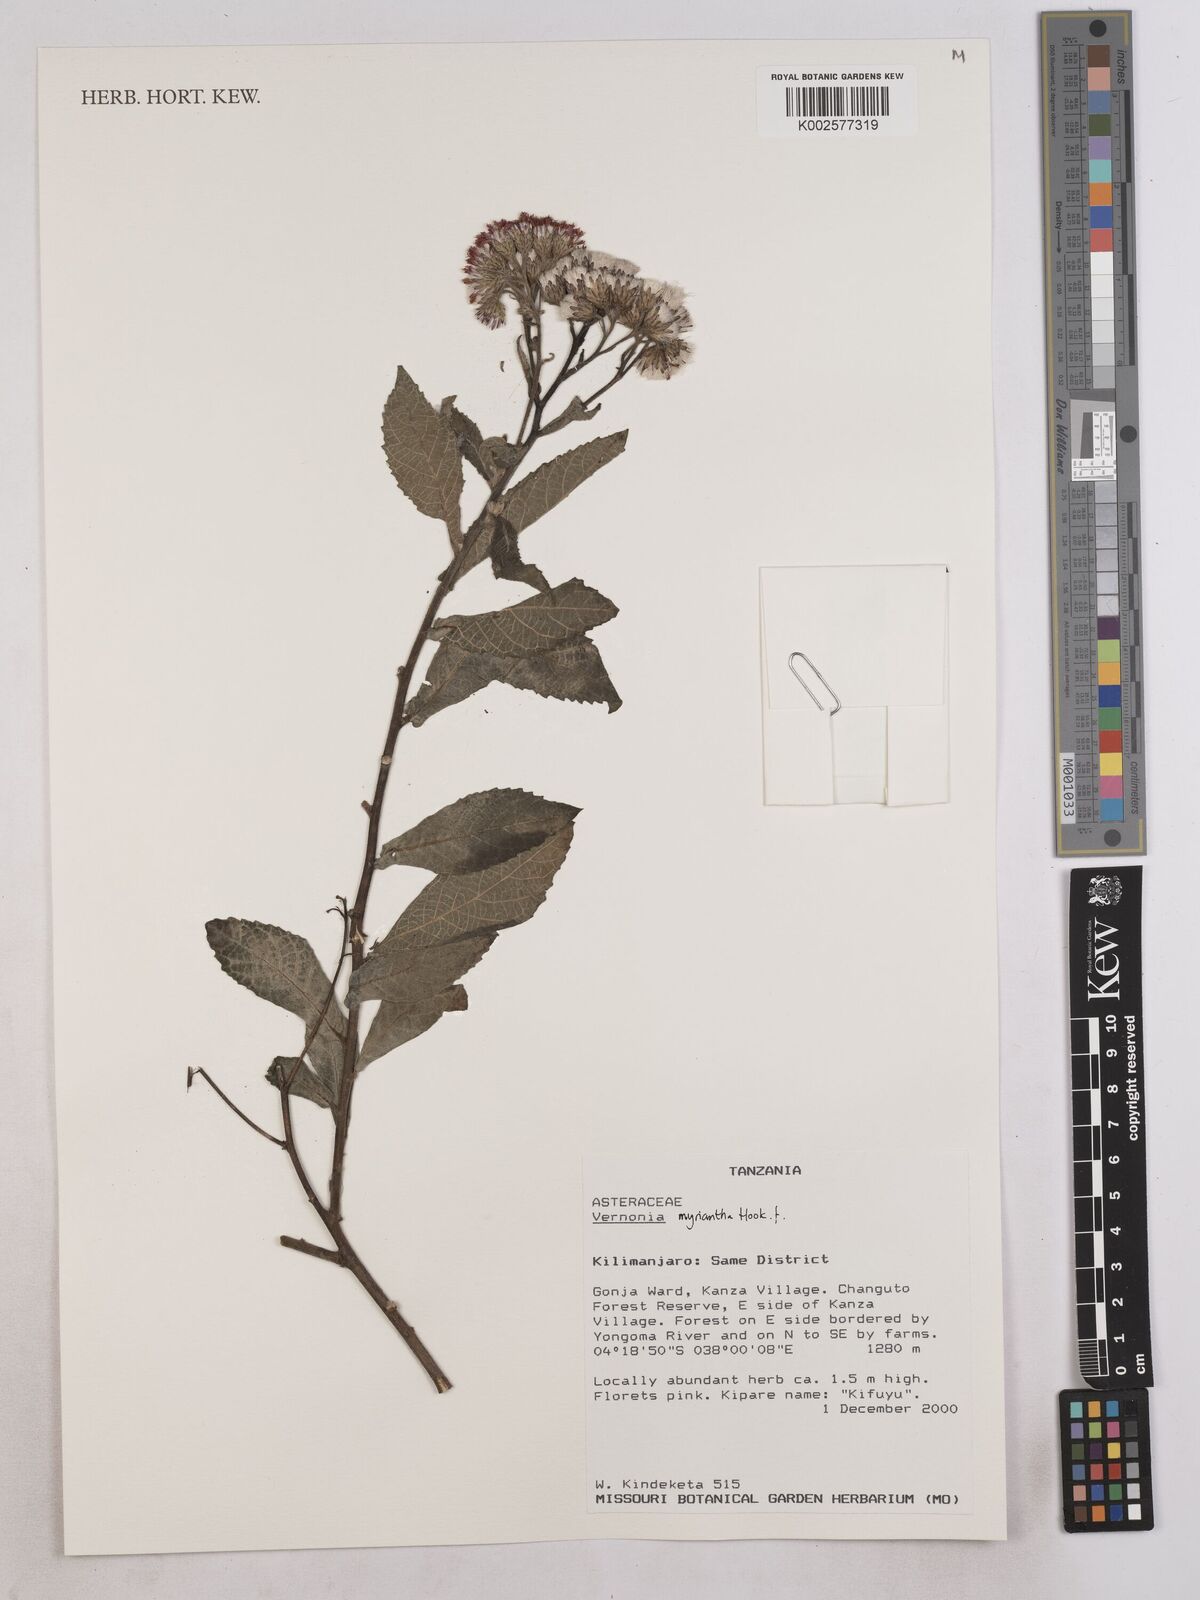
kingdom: Plantae
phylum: Tracheophyta
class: Magnoliopsida
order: Asterales
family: Asteraceae
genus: Gymnanthemum
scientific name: Gymnanthemum myrianthum
